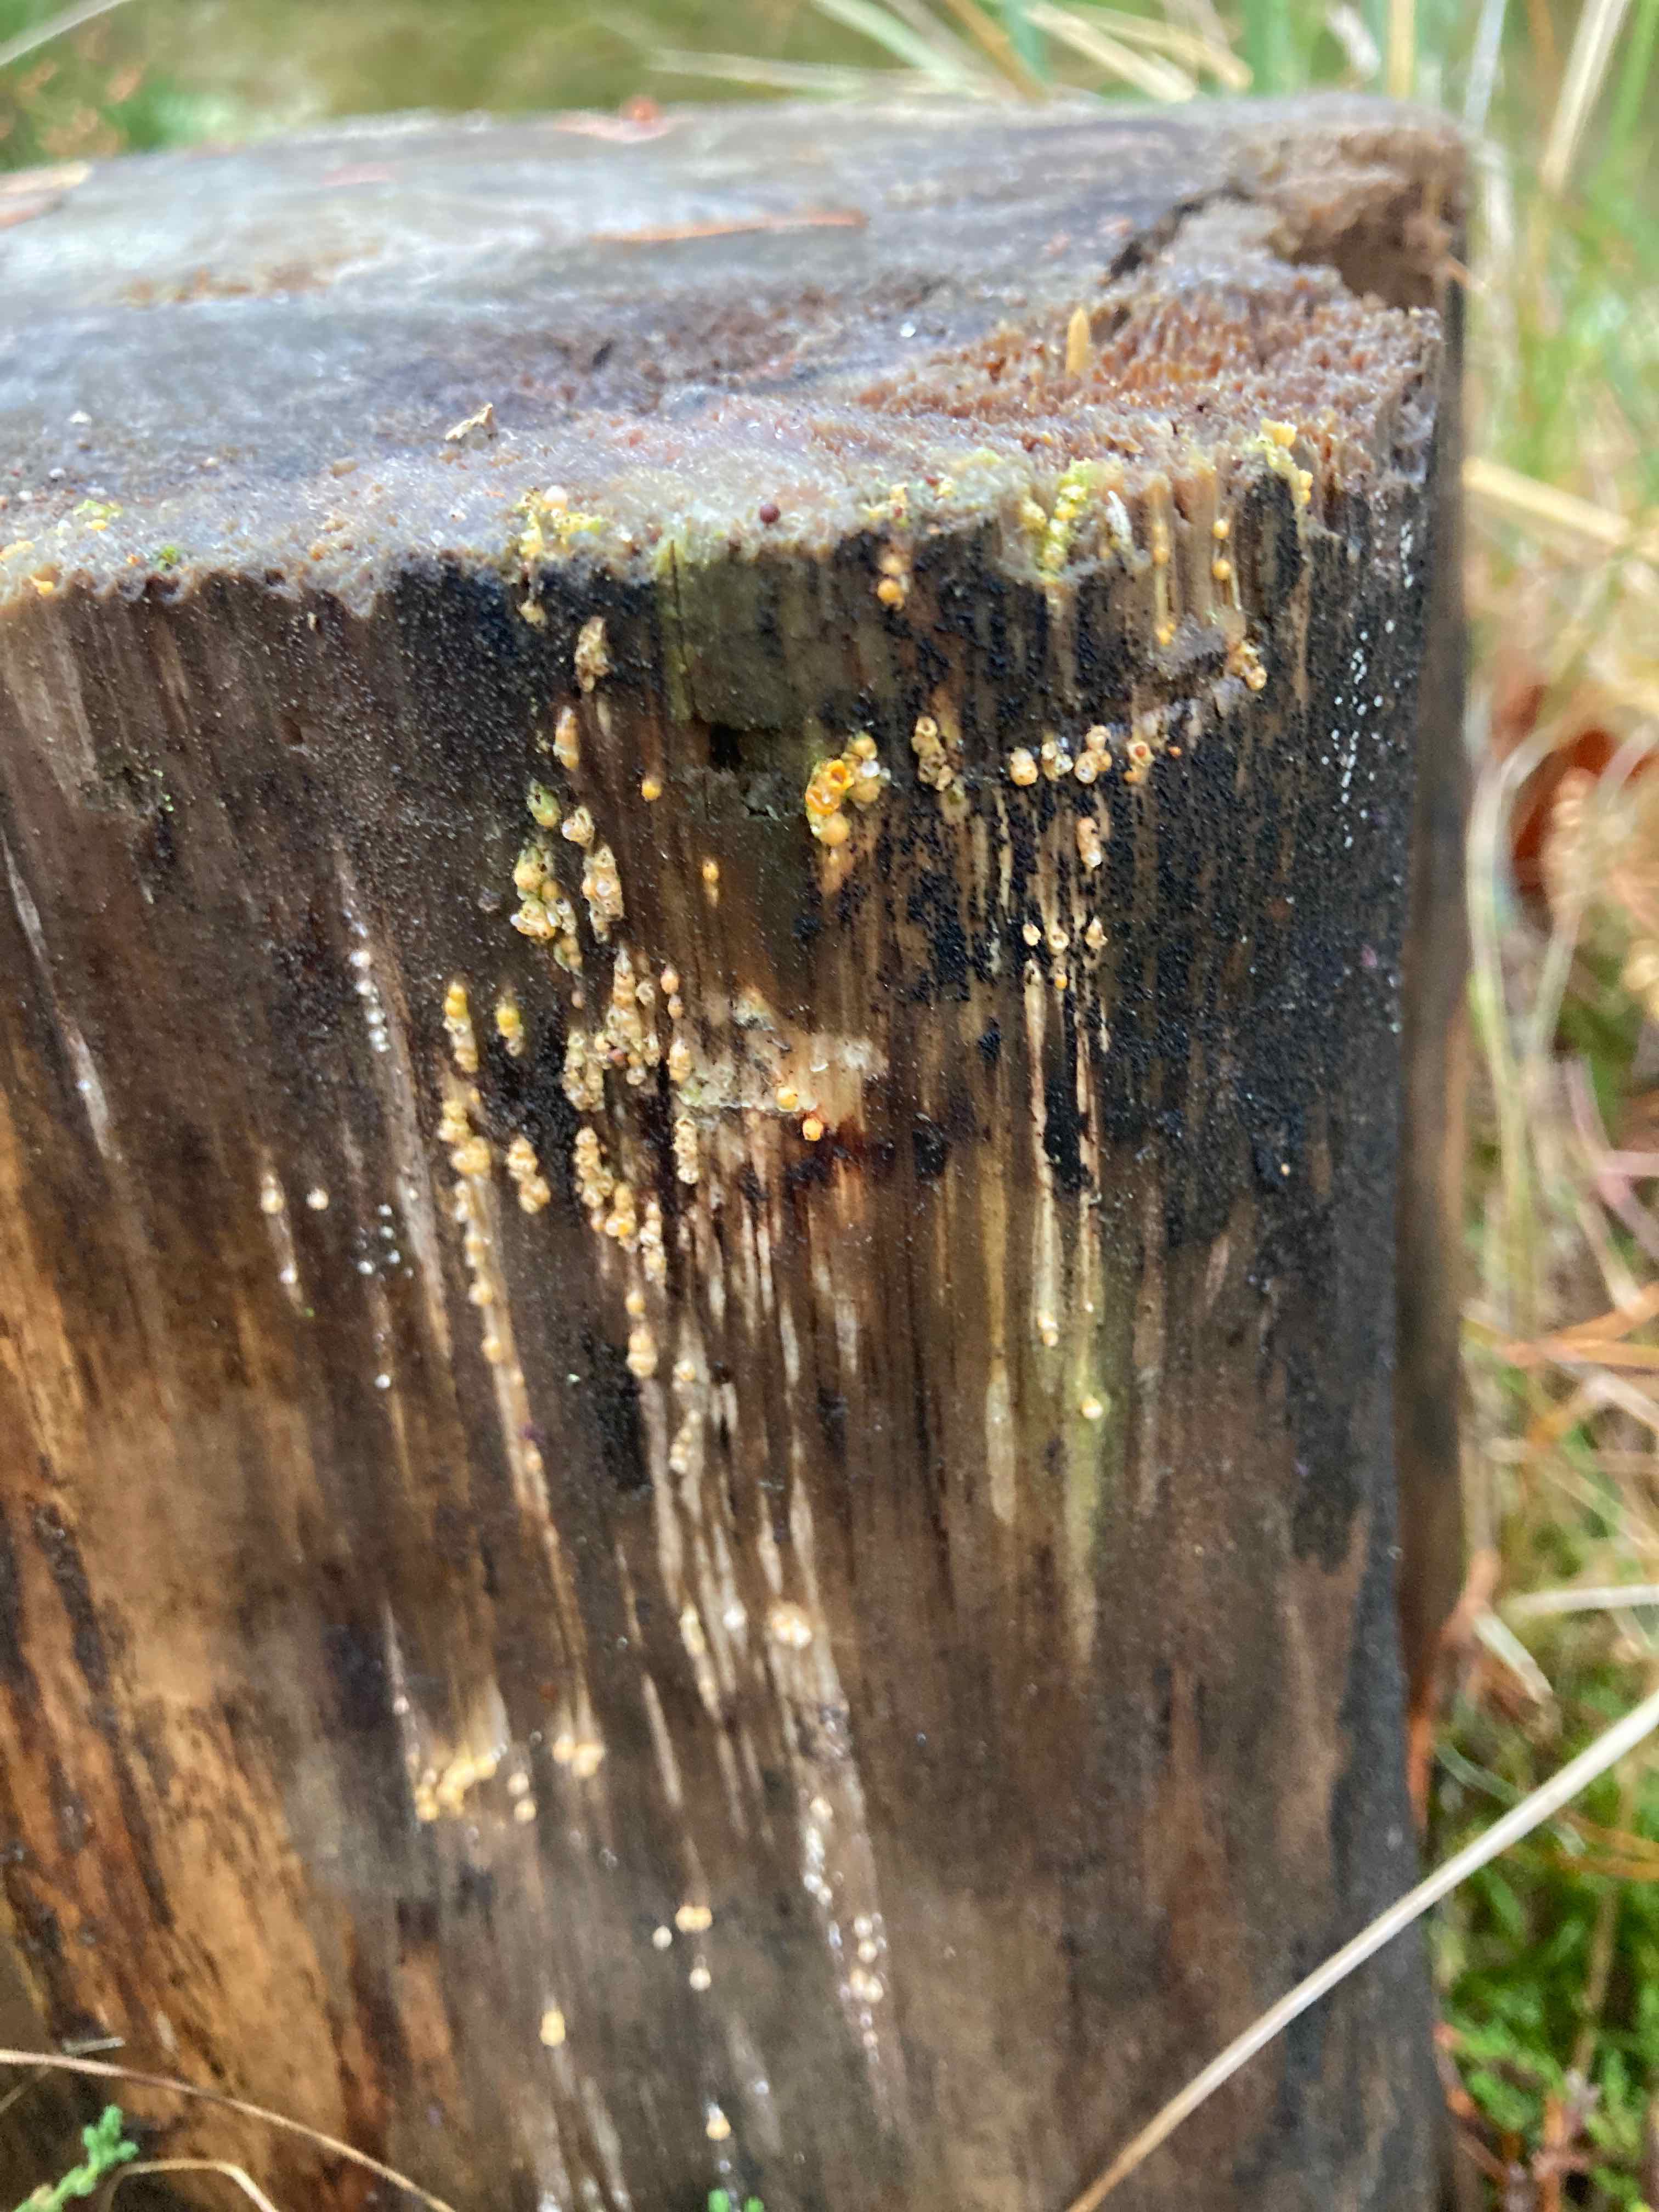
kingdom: Fungi
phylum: Basidiomycota
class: Agaricomycetes
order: Geastrales
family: Geastraceae
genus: Sphaerobolus
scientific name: Sphaerobolus stellatus
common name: bombekaster
